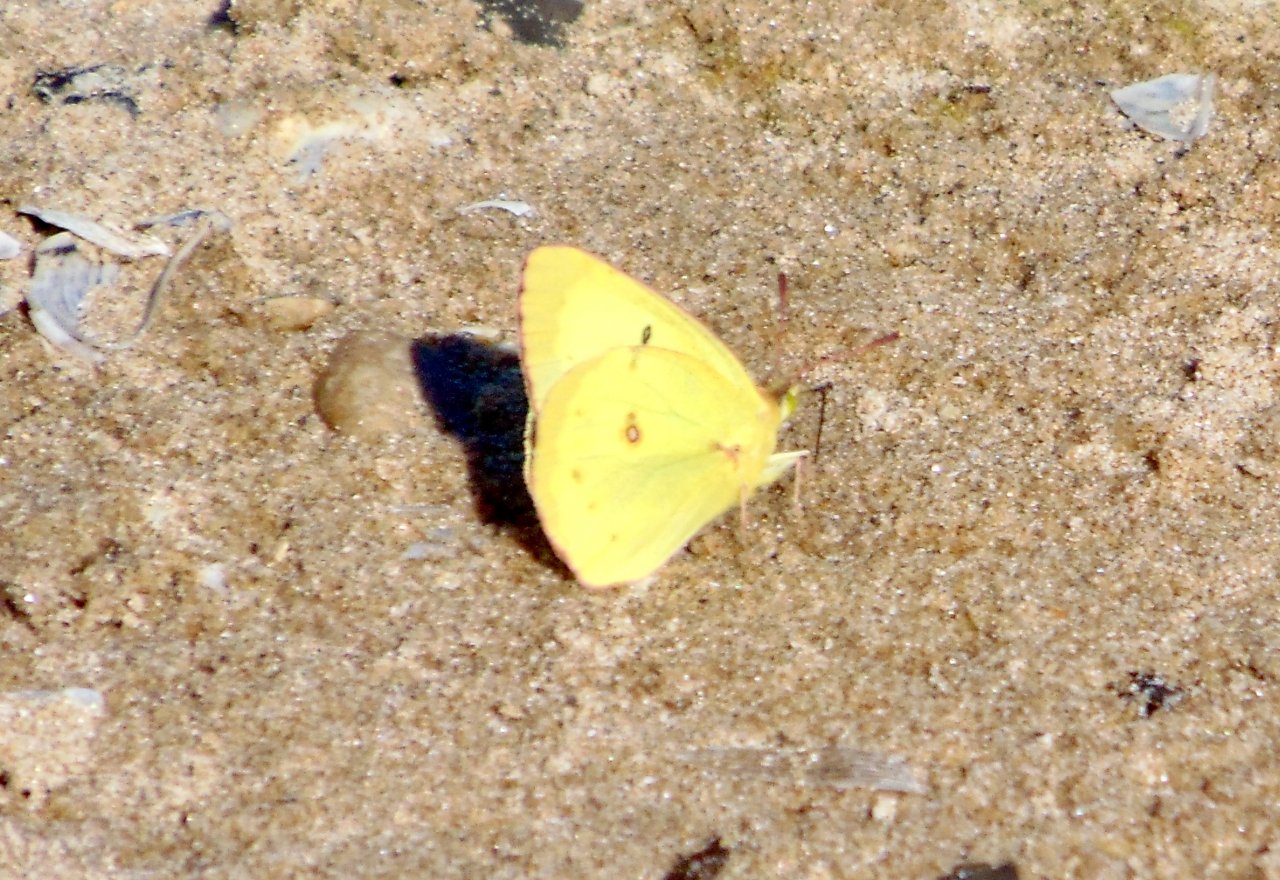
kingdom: Animalia
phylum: Arthropoda
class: Insecta
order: Lepidoptera
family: Pieridae
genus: Colias
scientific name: Colias philodice
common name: Clouded Sulphur
